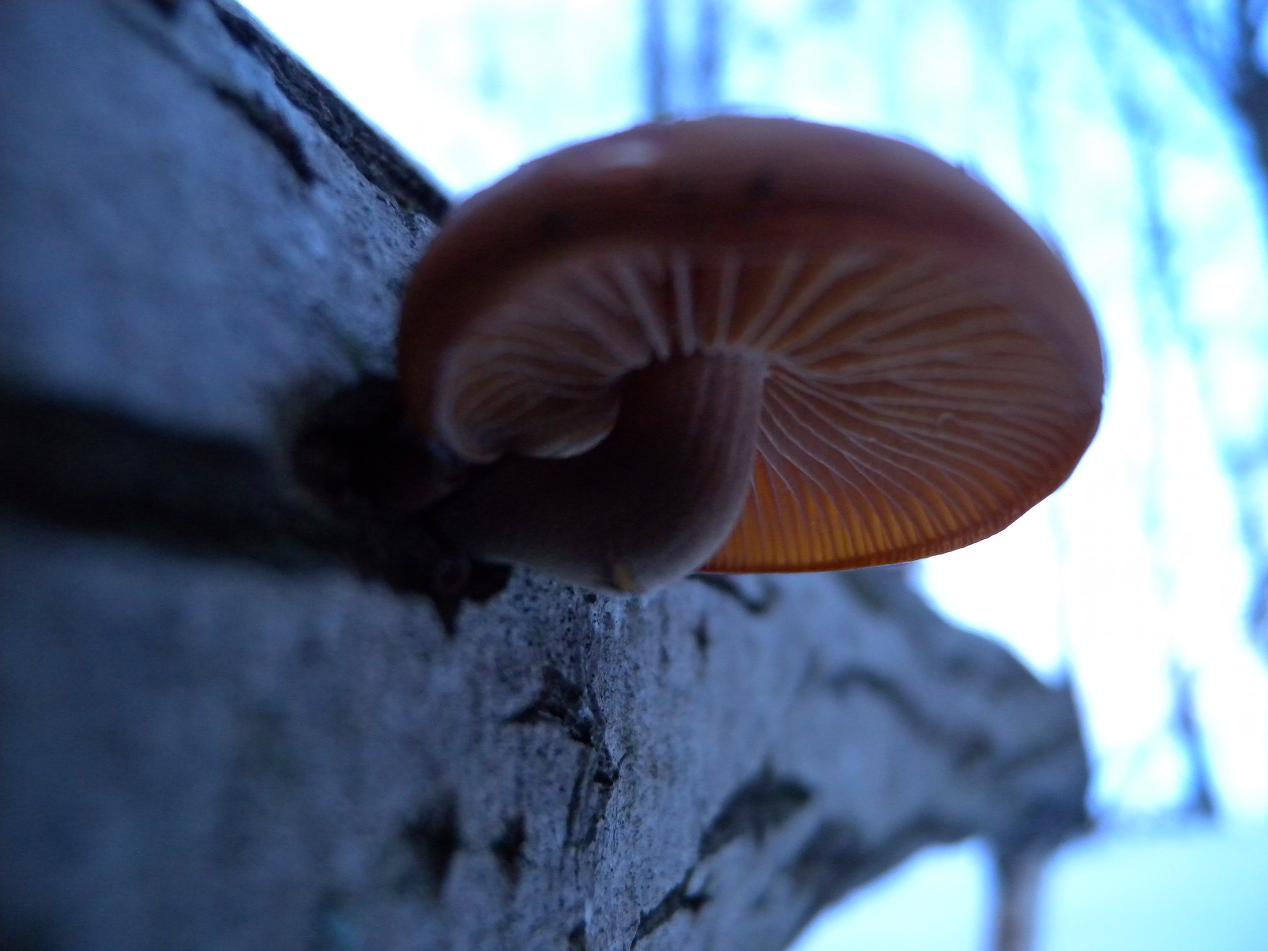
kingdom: Fungi
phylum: Basidiomycota
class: Agaricomycetes
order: Agaricales
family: Physalacriaceae
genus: Flammulina
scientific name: Flammulina velutipes
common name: gul fløjlsfod
